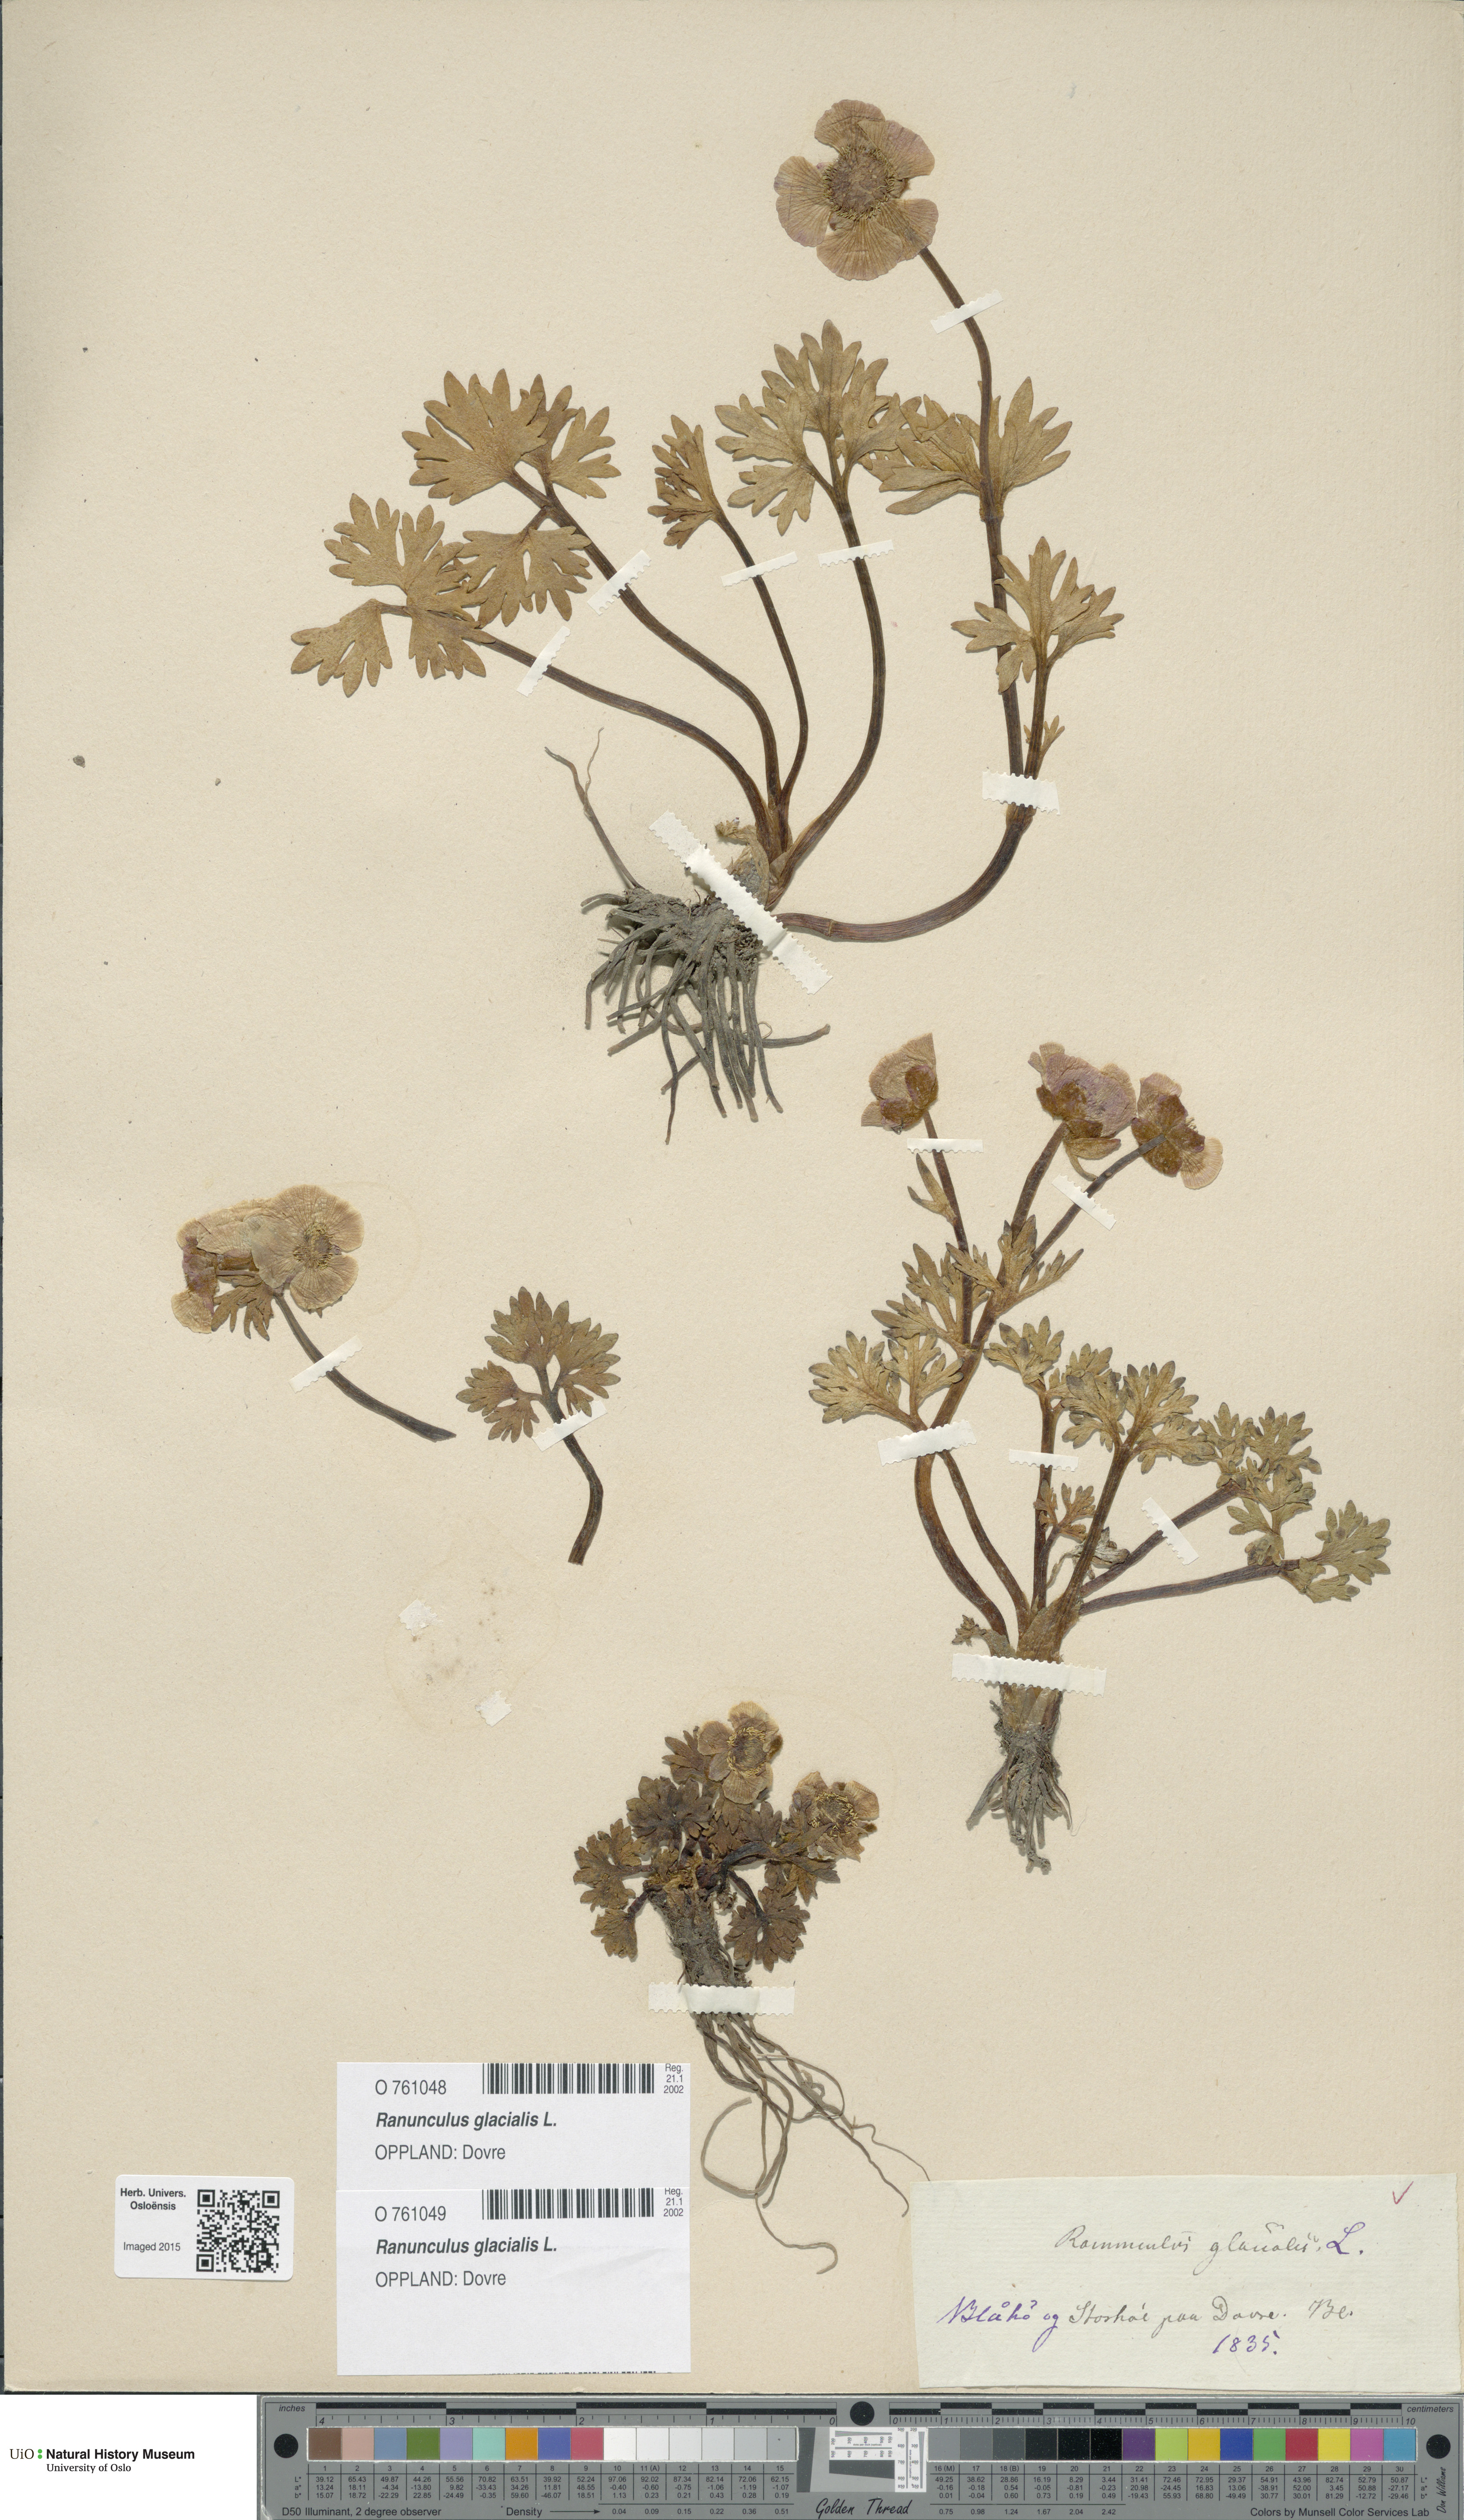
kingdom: Plantae
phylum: Tracheophyta
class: Magnoliopsida
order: Ranunculales
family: Ranunculaceae
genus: Ranunculus
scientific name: Ranunculus glacialis
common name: Glacier buttercup
